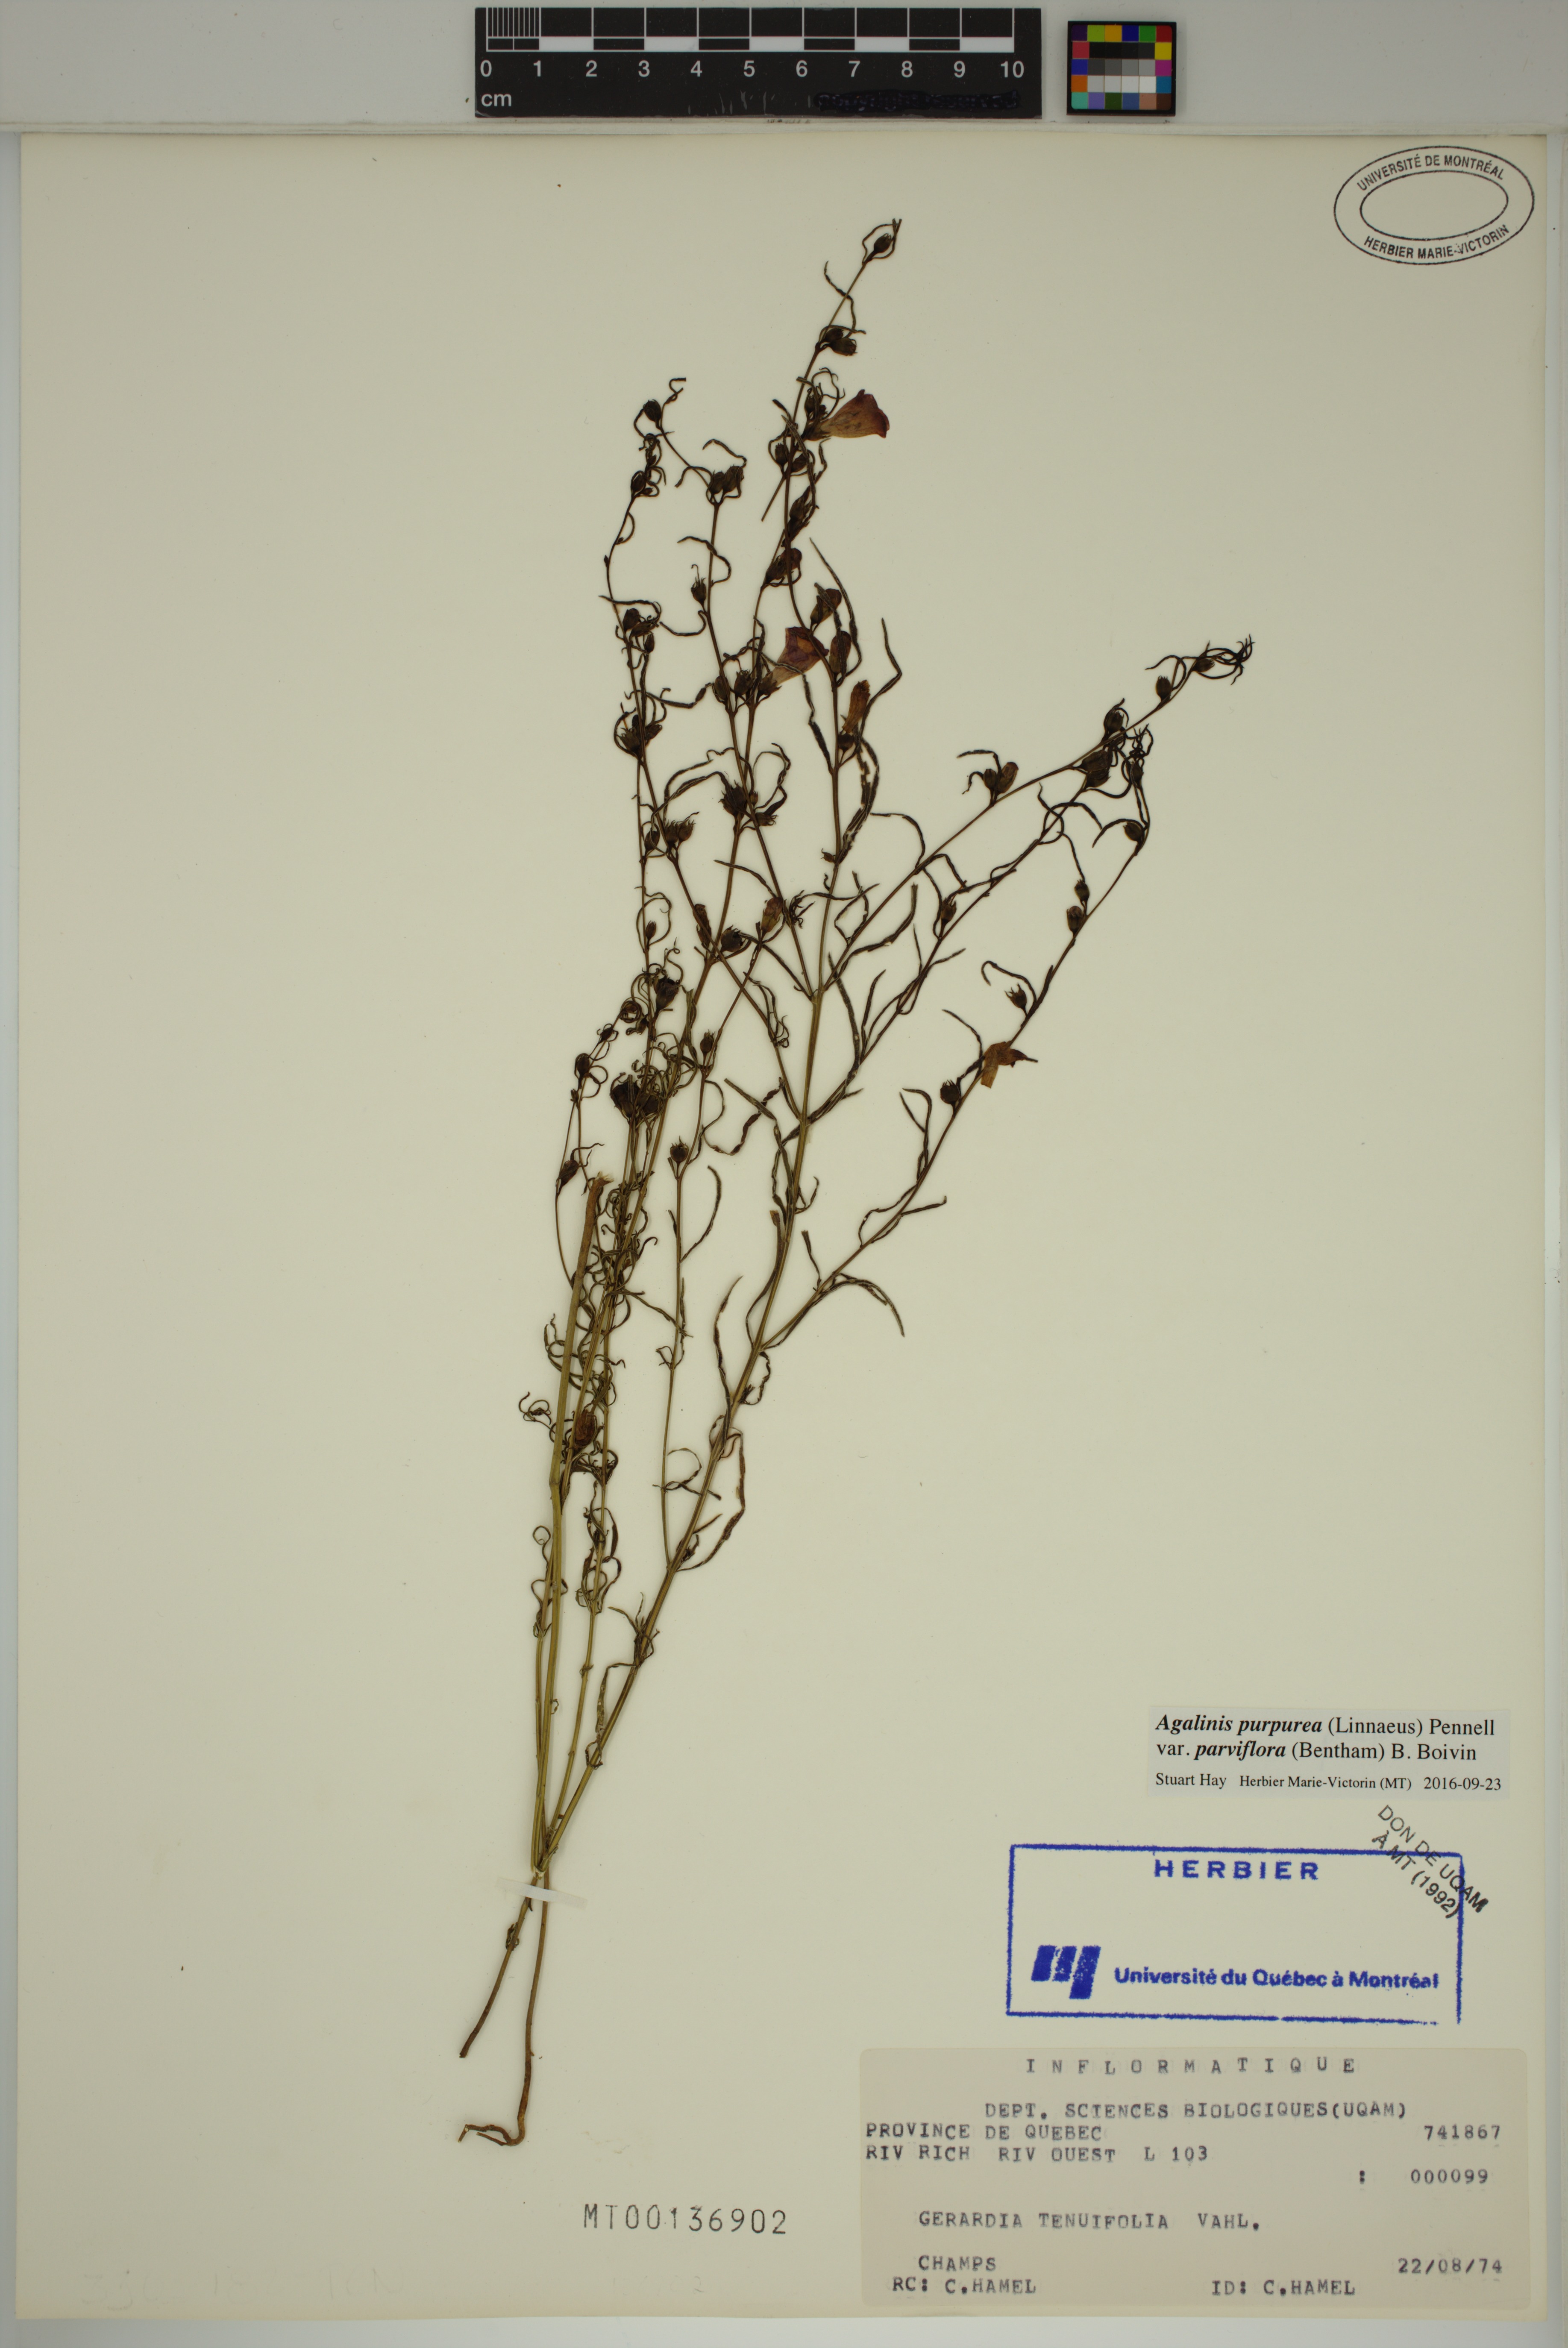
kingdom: Plantae
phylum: Tracheophyta
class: Magnoliopsida
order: Lamiales
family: Orobanchaceae
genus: Agalinis
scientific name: Agalinis purpurea
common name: Purple false foxglove
